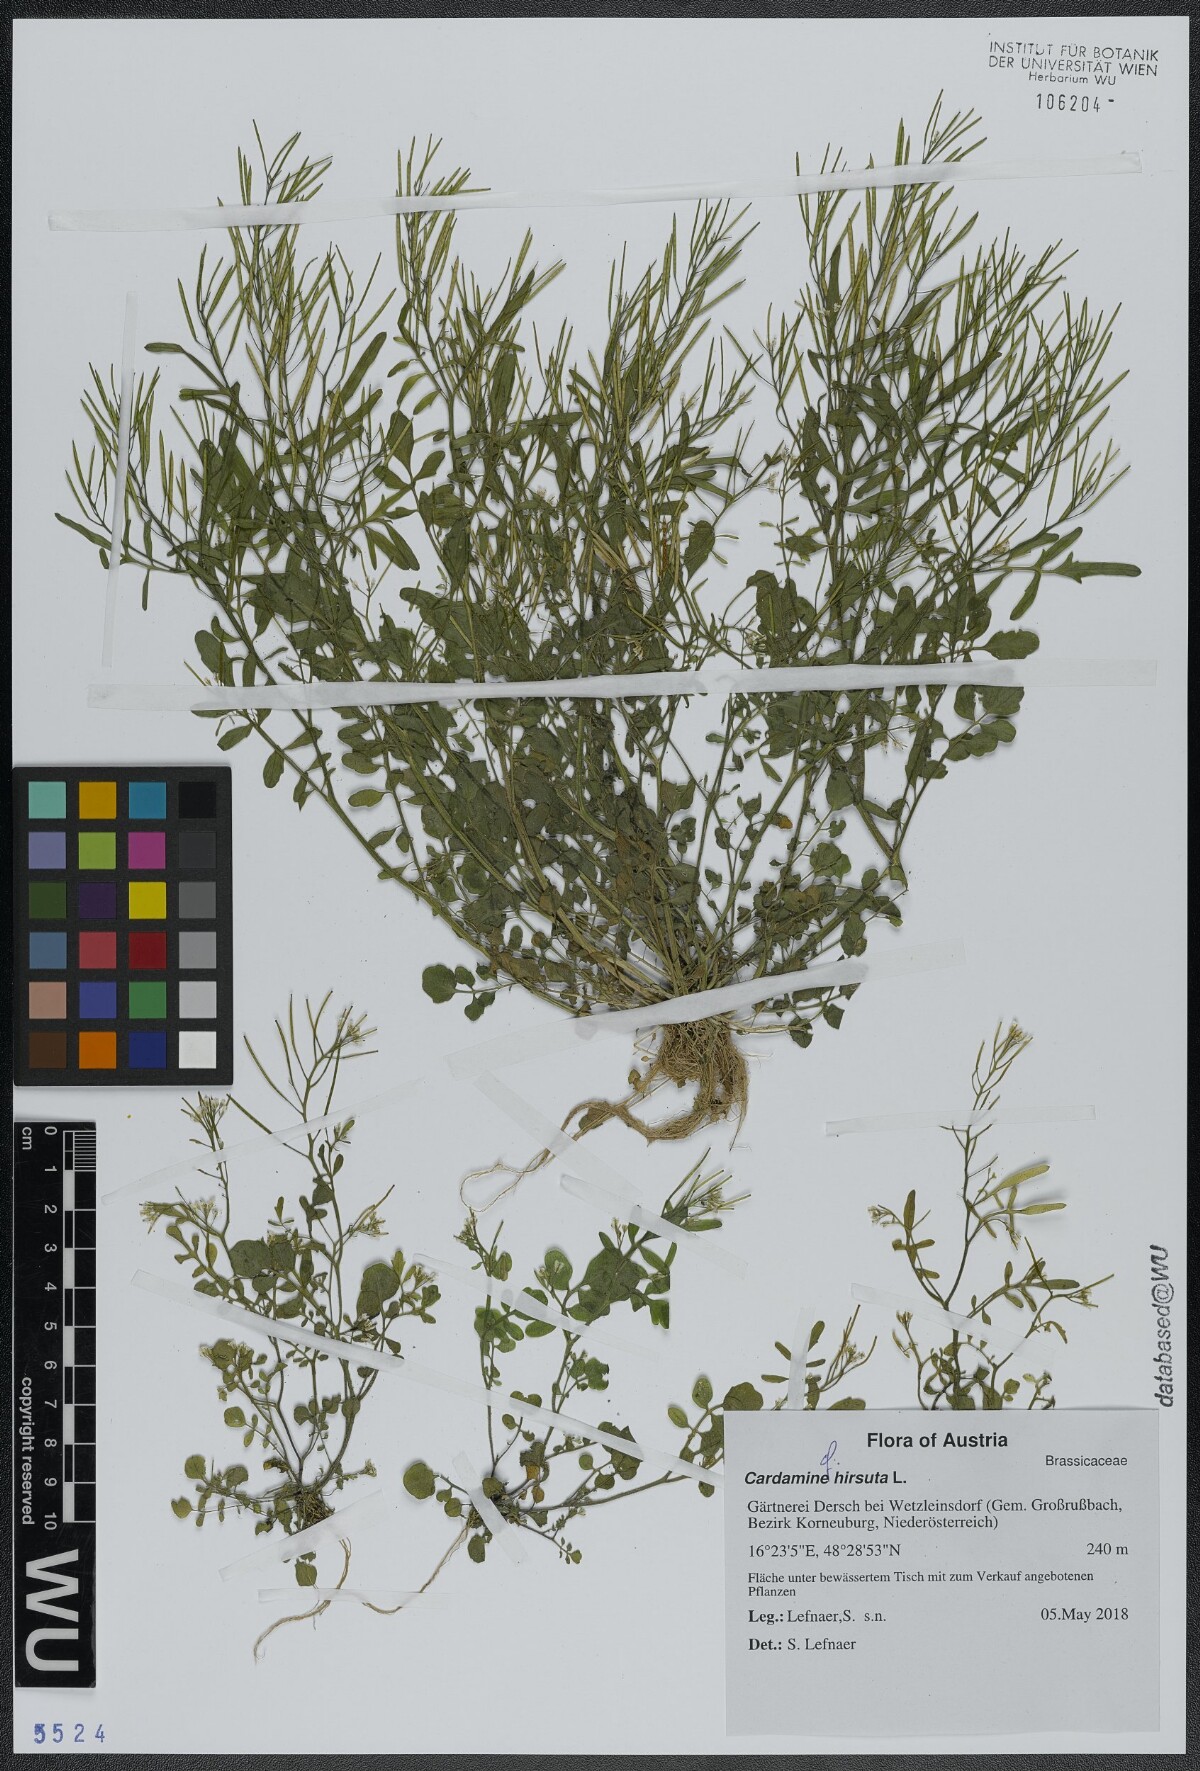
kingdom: Plantae
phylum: Tracheophyta
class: Magnoliopsida
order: Brassicales
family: Brassicaceae
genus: Cardamine
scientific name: Cardamine hirsuta
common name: Hairy bittercress
